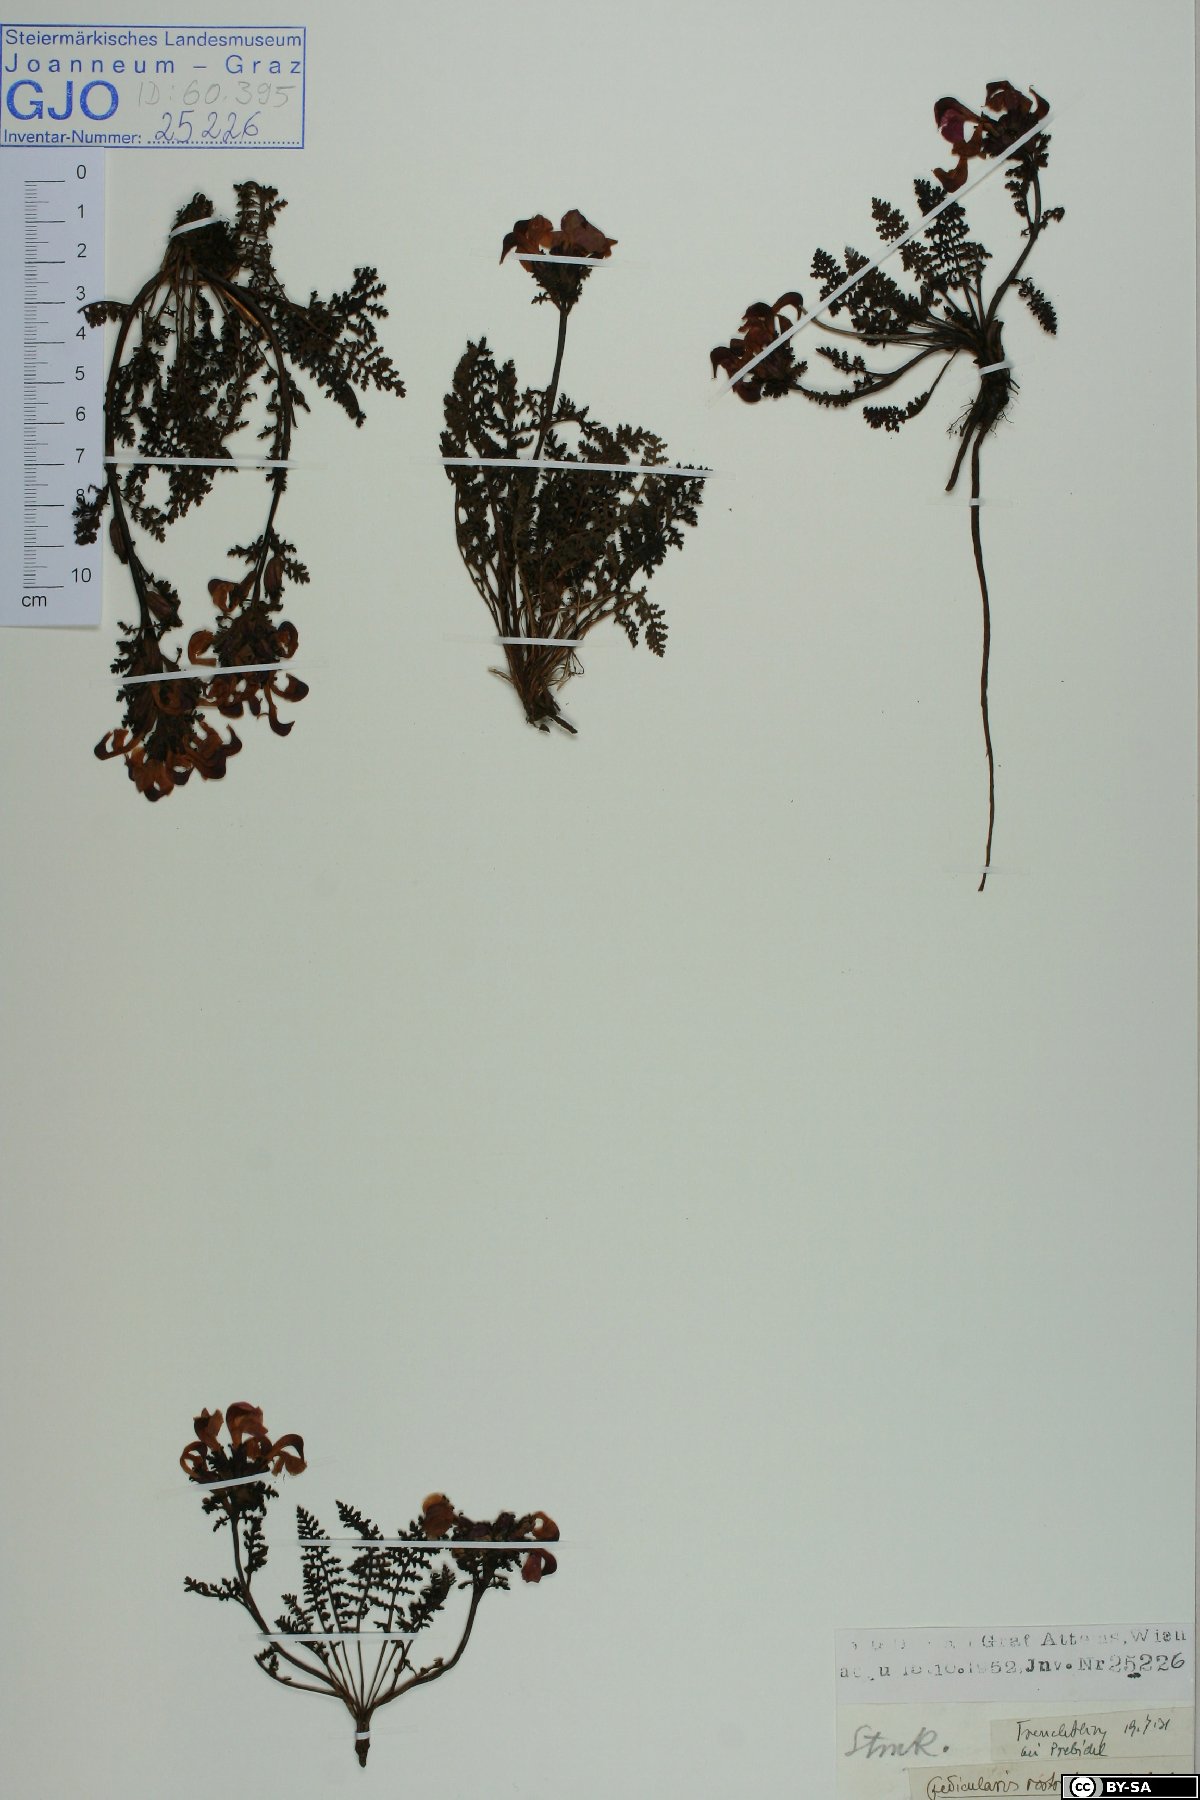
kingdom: Plantae
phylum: Tracheophyta
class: Magnoliopsida
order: Lamiales
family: Orobanchaceae
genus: Pedicularis
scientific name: Pedicularis rostratocapitata
